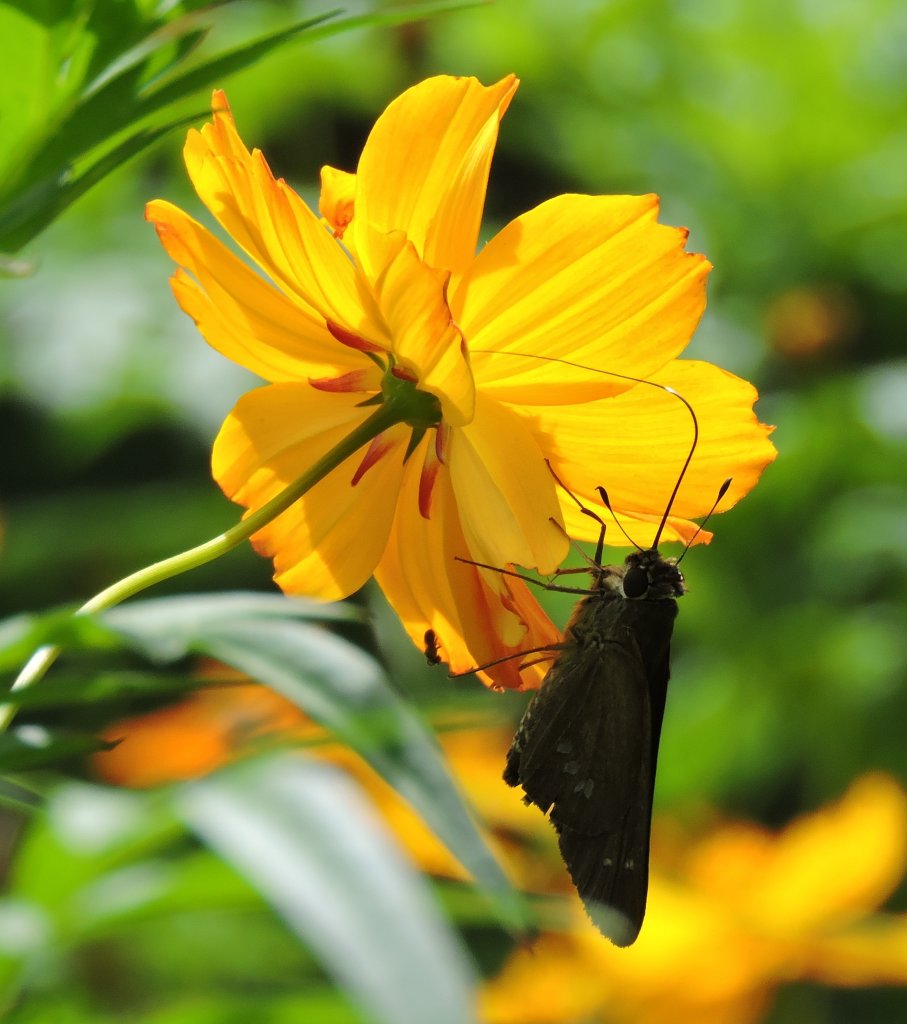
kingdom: Animalia
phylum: Arthropoda
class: Insecta
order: Lepidoptera
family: Hesperiidae
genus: Calpodes
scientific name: Calpodes ethlius
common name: Brazilian Skipper
